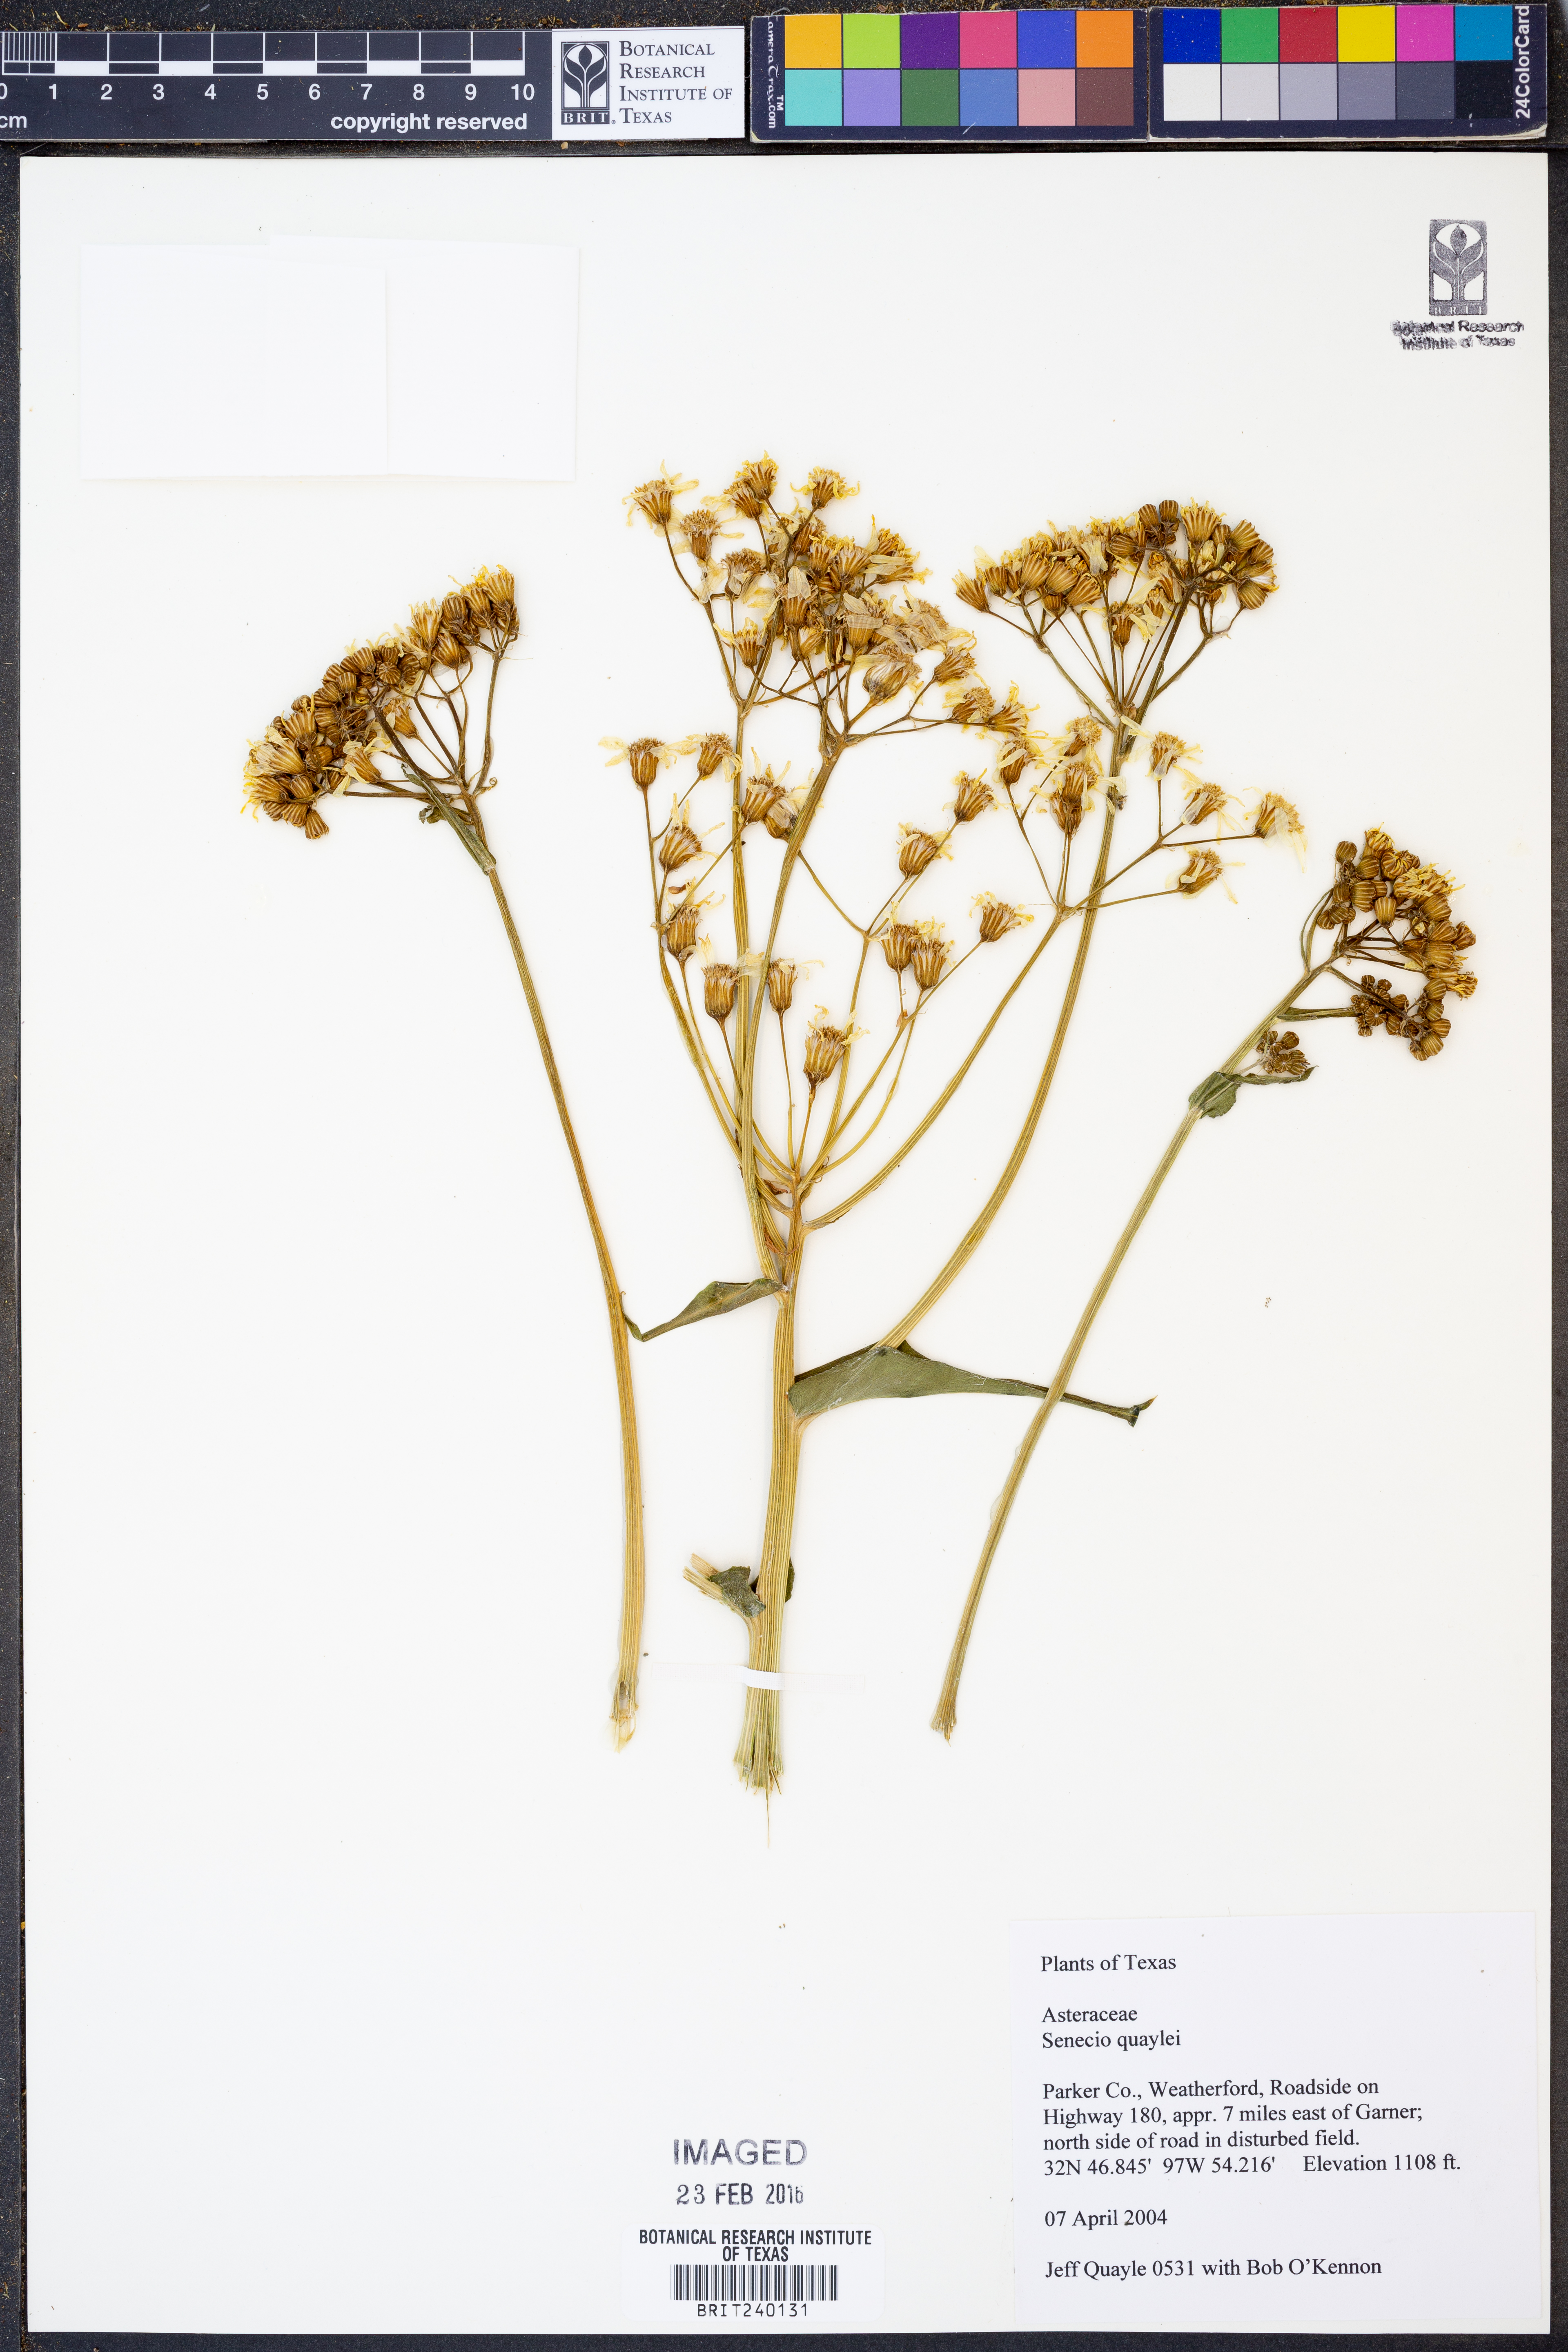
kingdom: Plantae
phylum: Tracheophyta
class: Magnoliopsida
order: Asterales
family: Asteraceae
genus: Senecio
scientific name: Senecio quaylei
